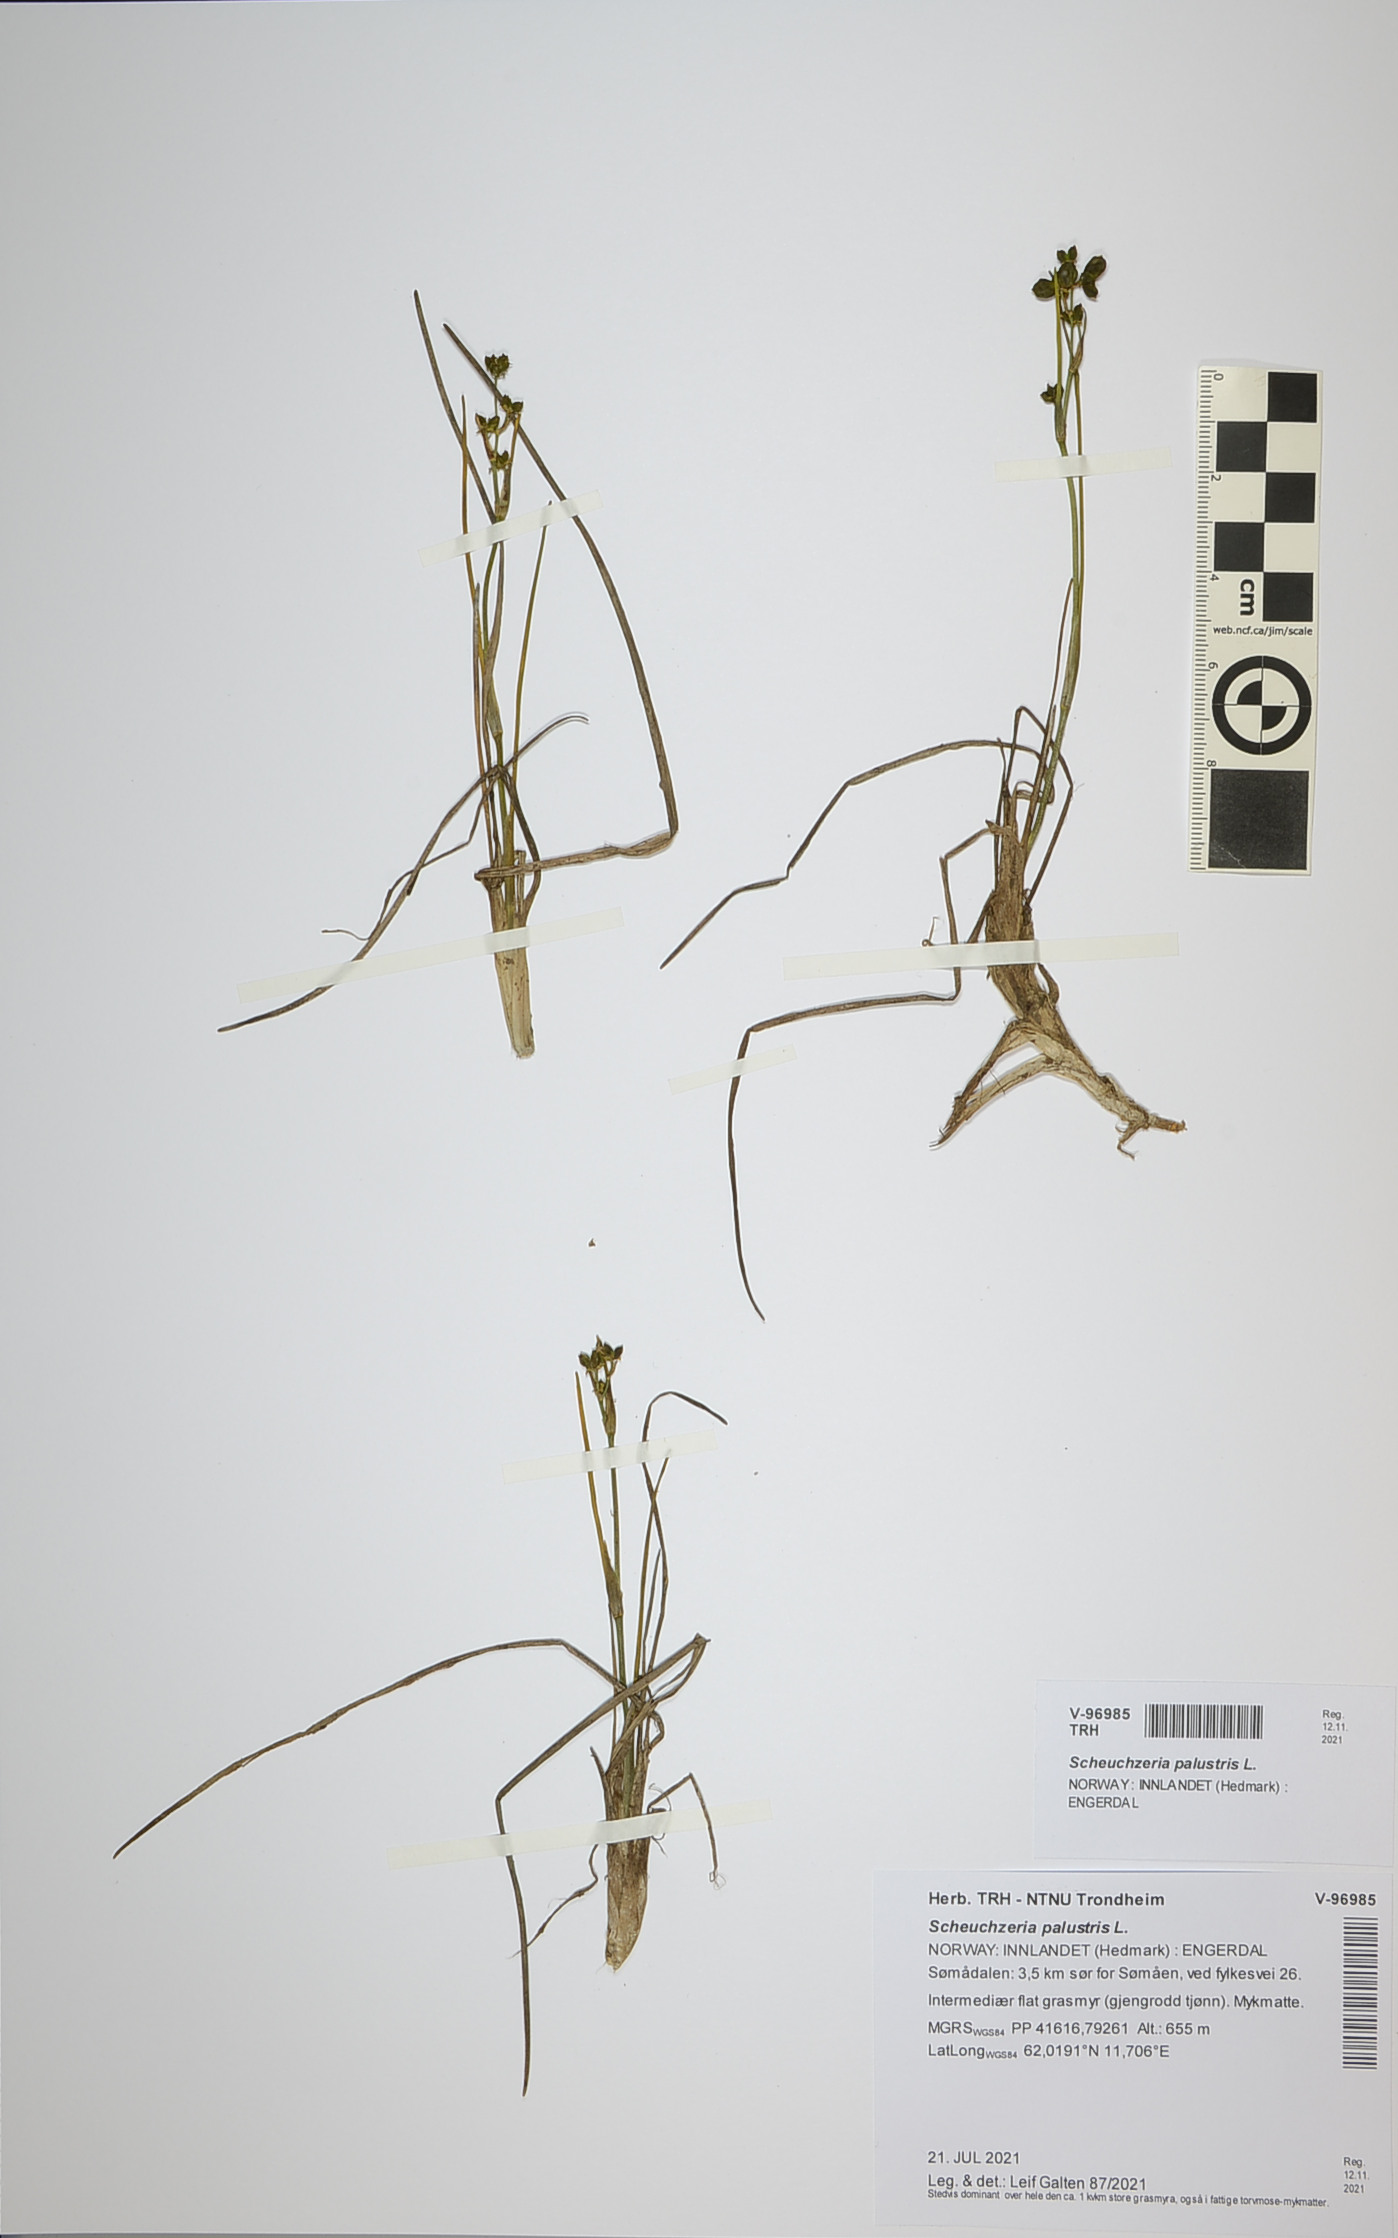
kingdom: Plantae
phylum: Tracheophyta
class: Liliopsida
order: Alismatales
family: Scheuchzeriaceae
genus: Scheuchzeria
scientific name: Scheuchzeria palustris
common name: Rannoch-rush
